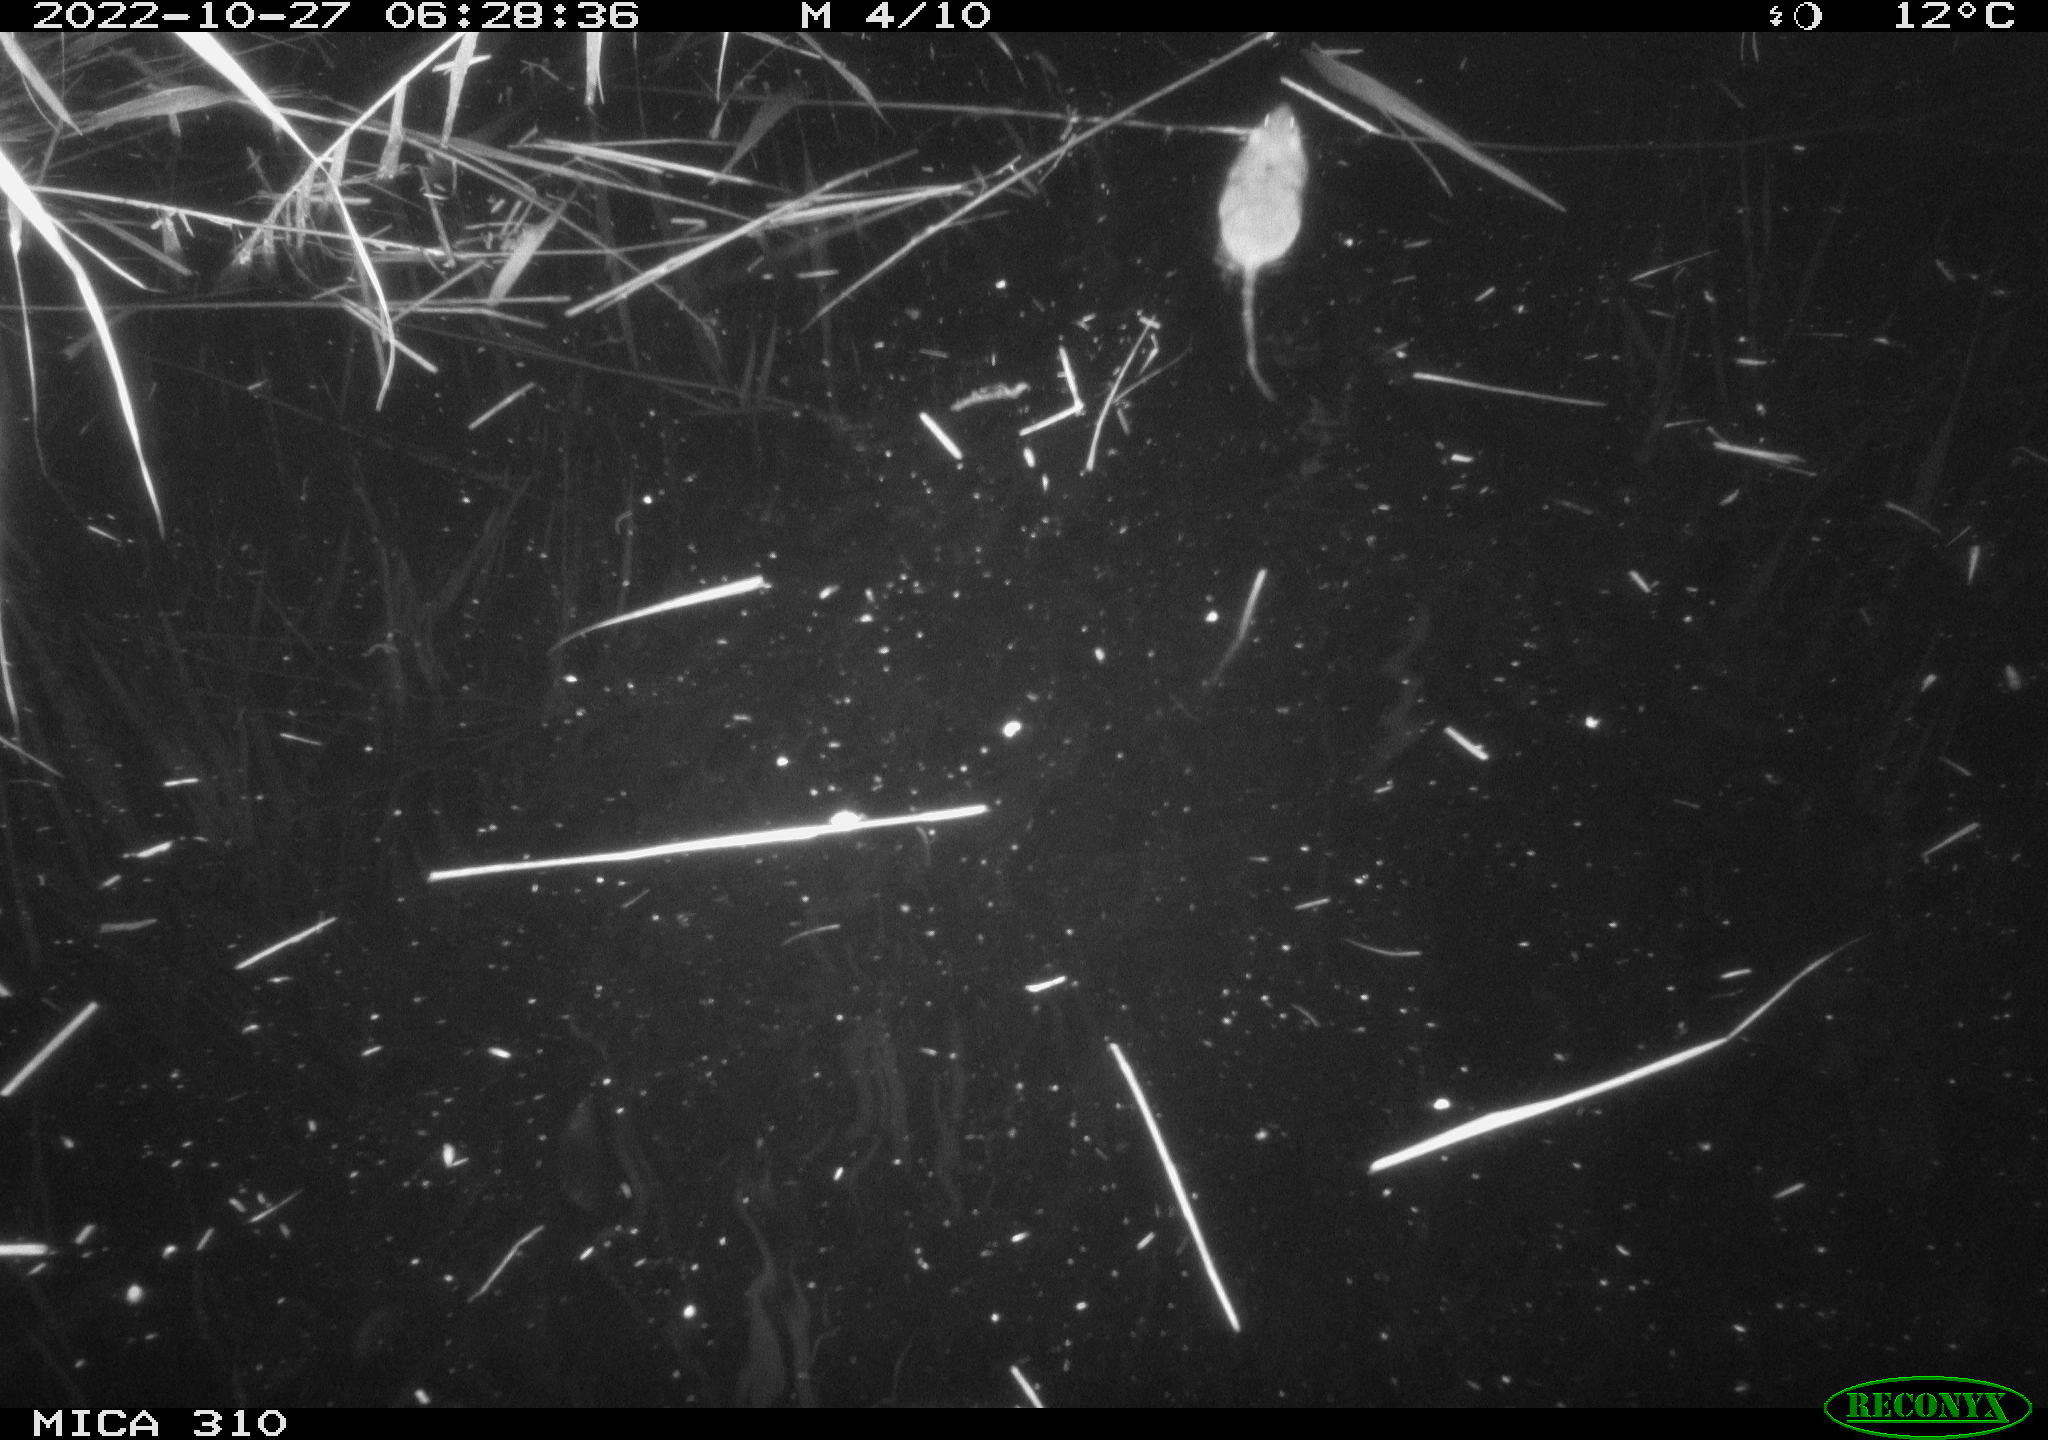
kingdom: Animalia
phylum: Chordata
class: Mammalia
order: Rodentia
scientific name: Rodentia
